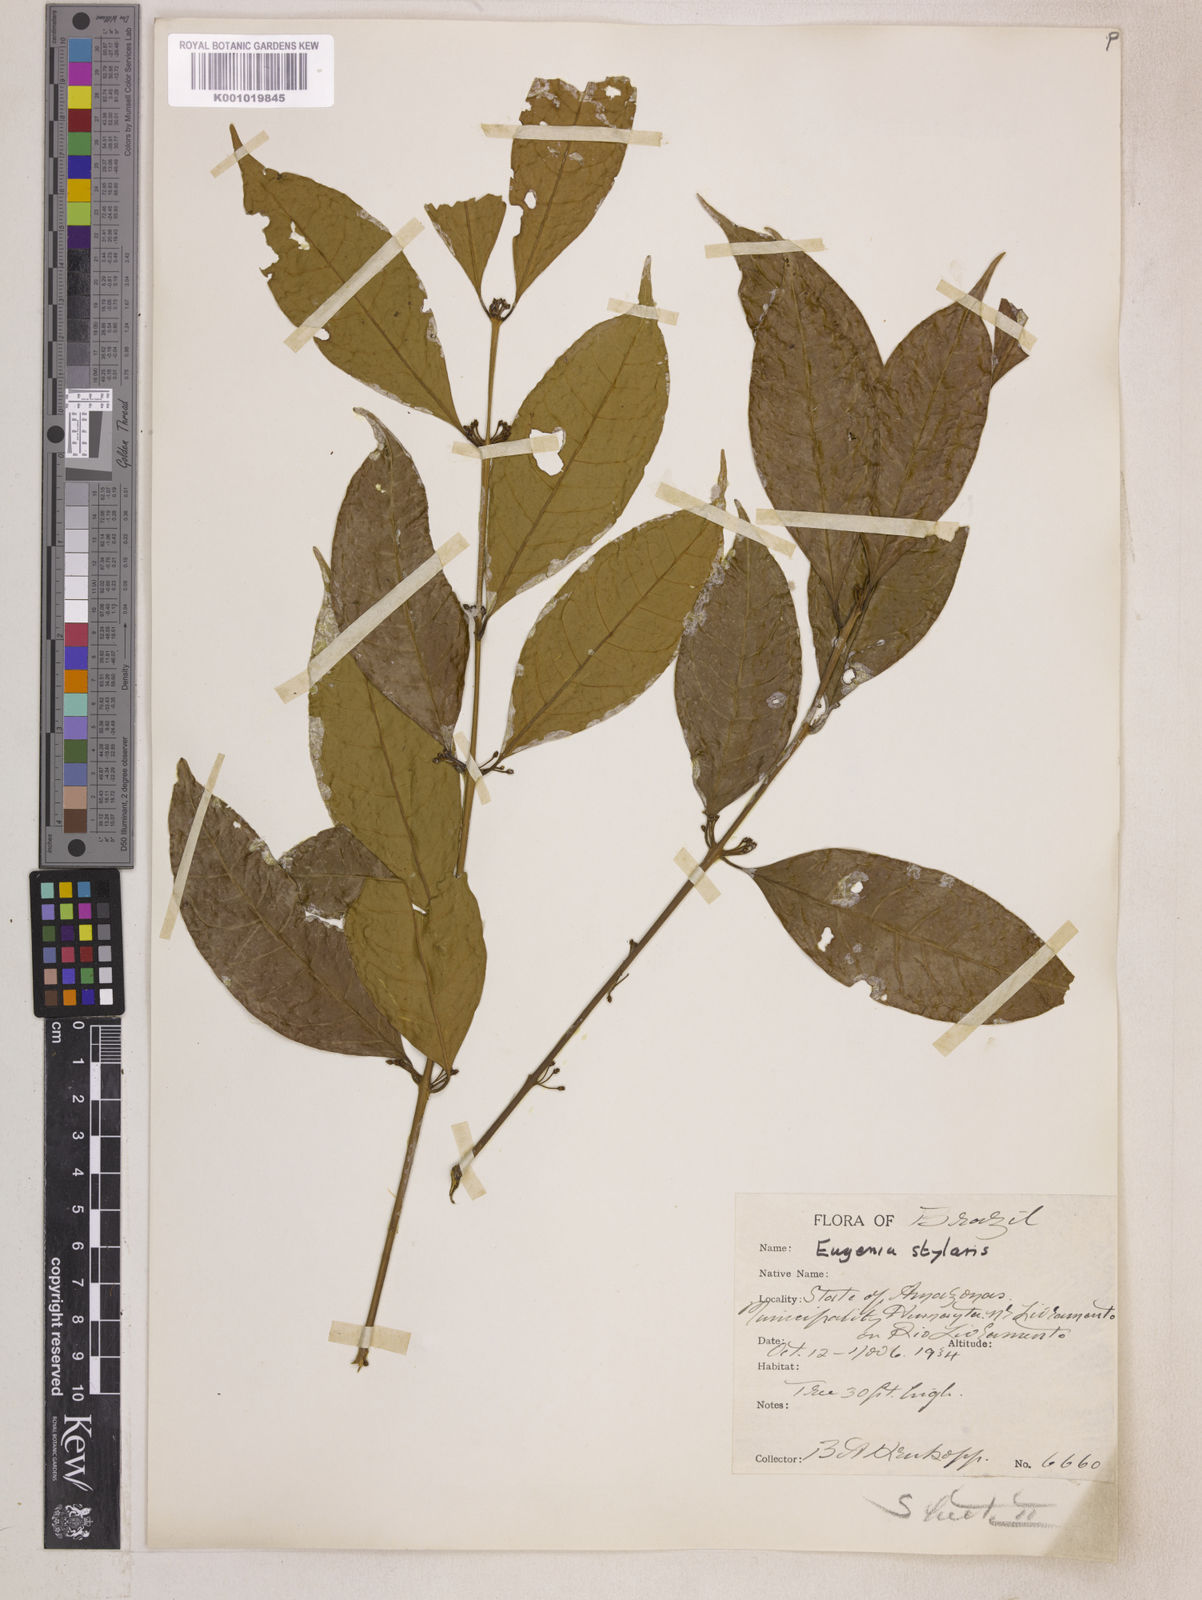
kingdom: Plantae
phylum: Tracheophyta
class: Magnoliopsida
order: Myrtales
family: Myrtaceae
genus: Eugenia
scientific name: Eugenia stylaris
